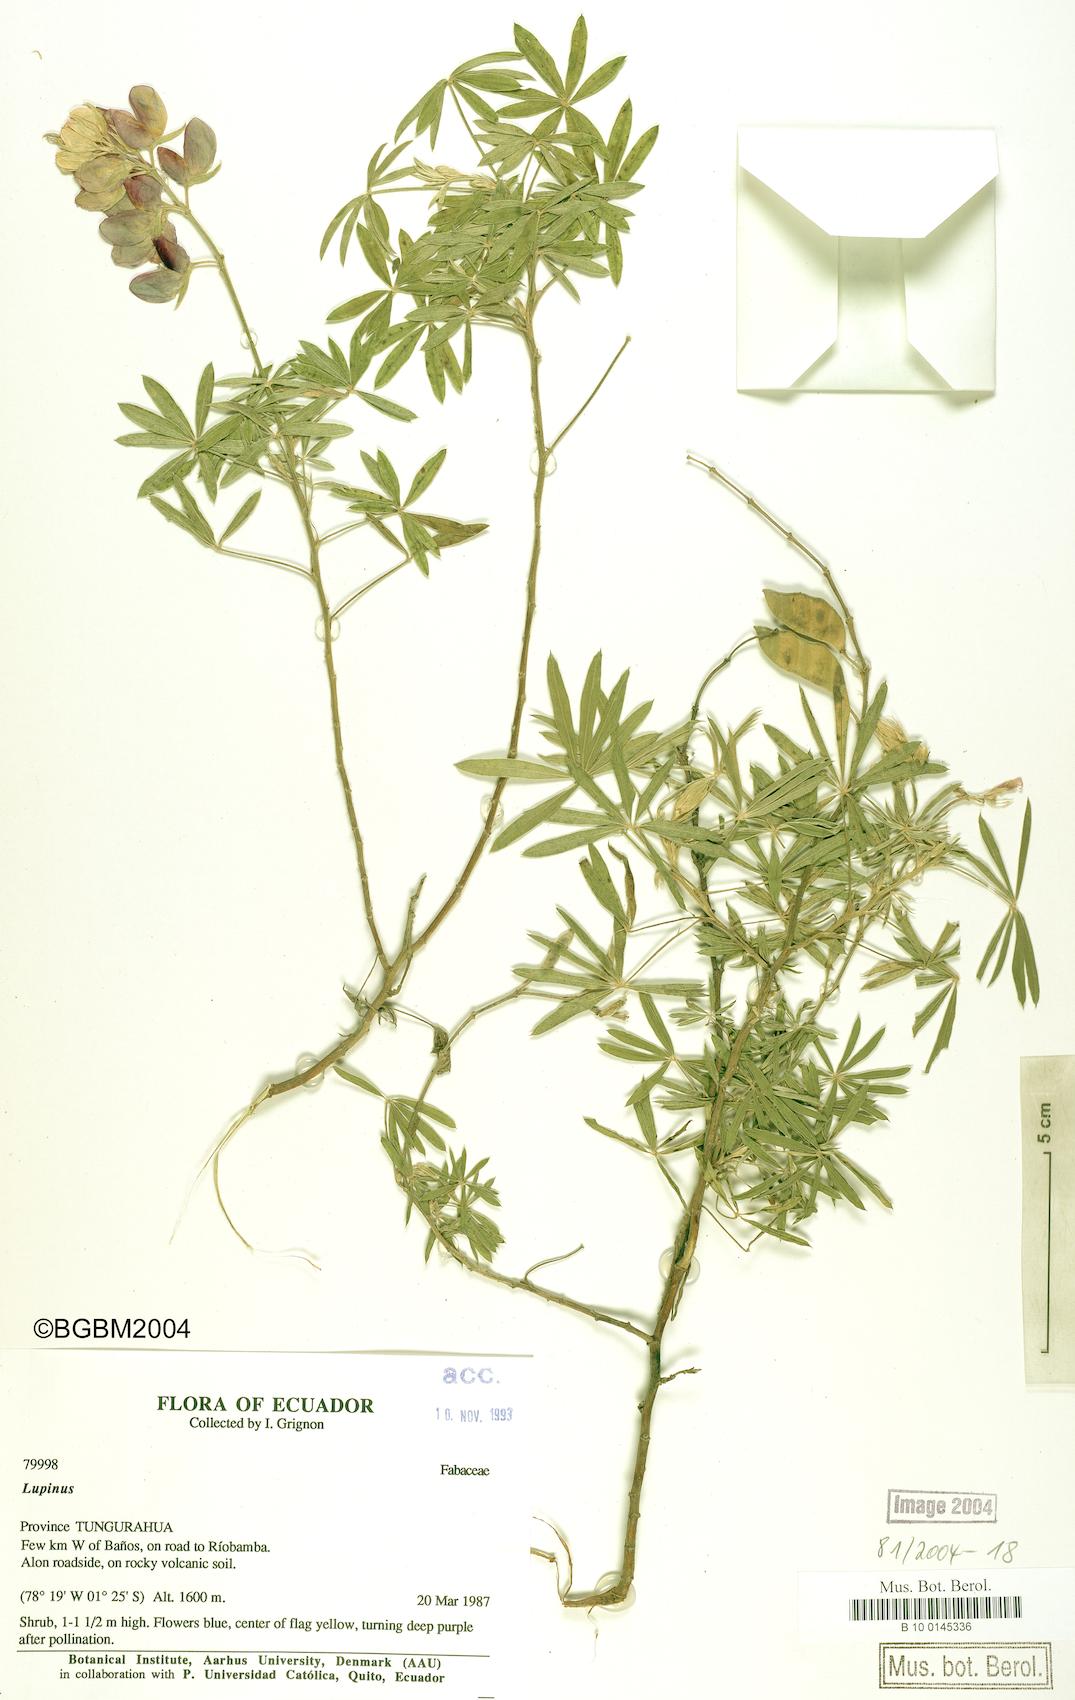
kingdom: Plantae
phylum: Tracheophyta
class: Magnoliopsida
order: Fabales
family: Fabaceae
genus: Lupinus
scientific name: Lupinus
